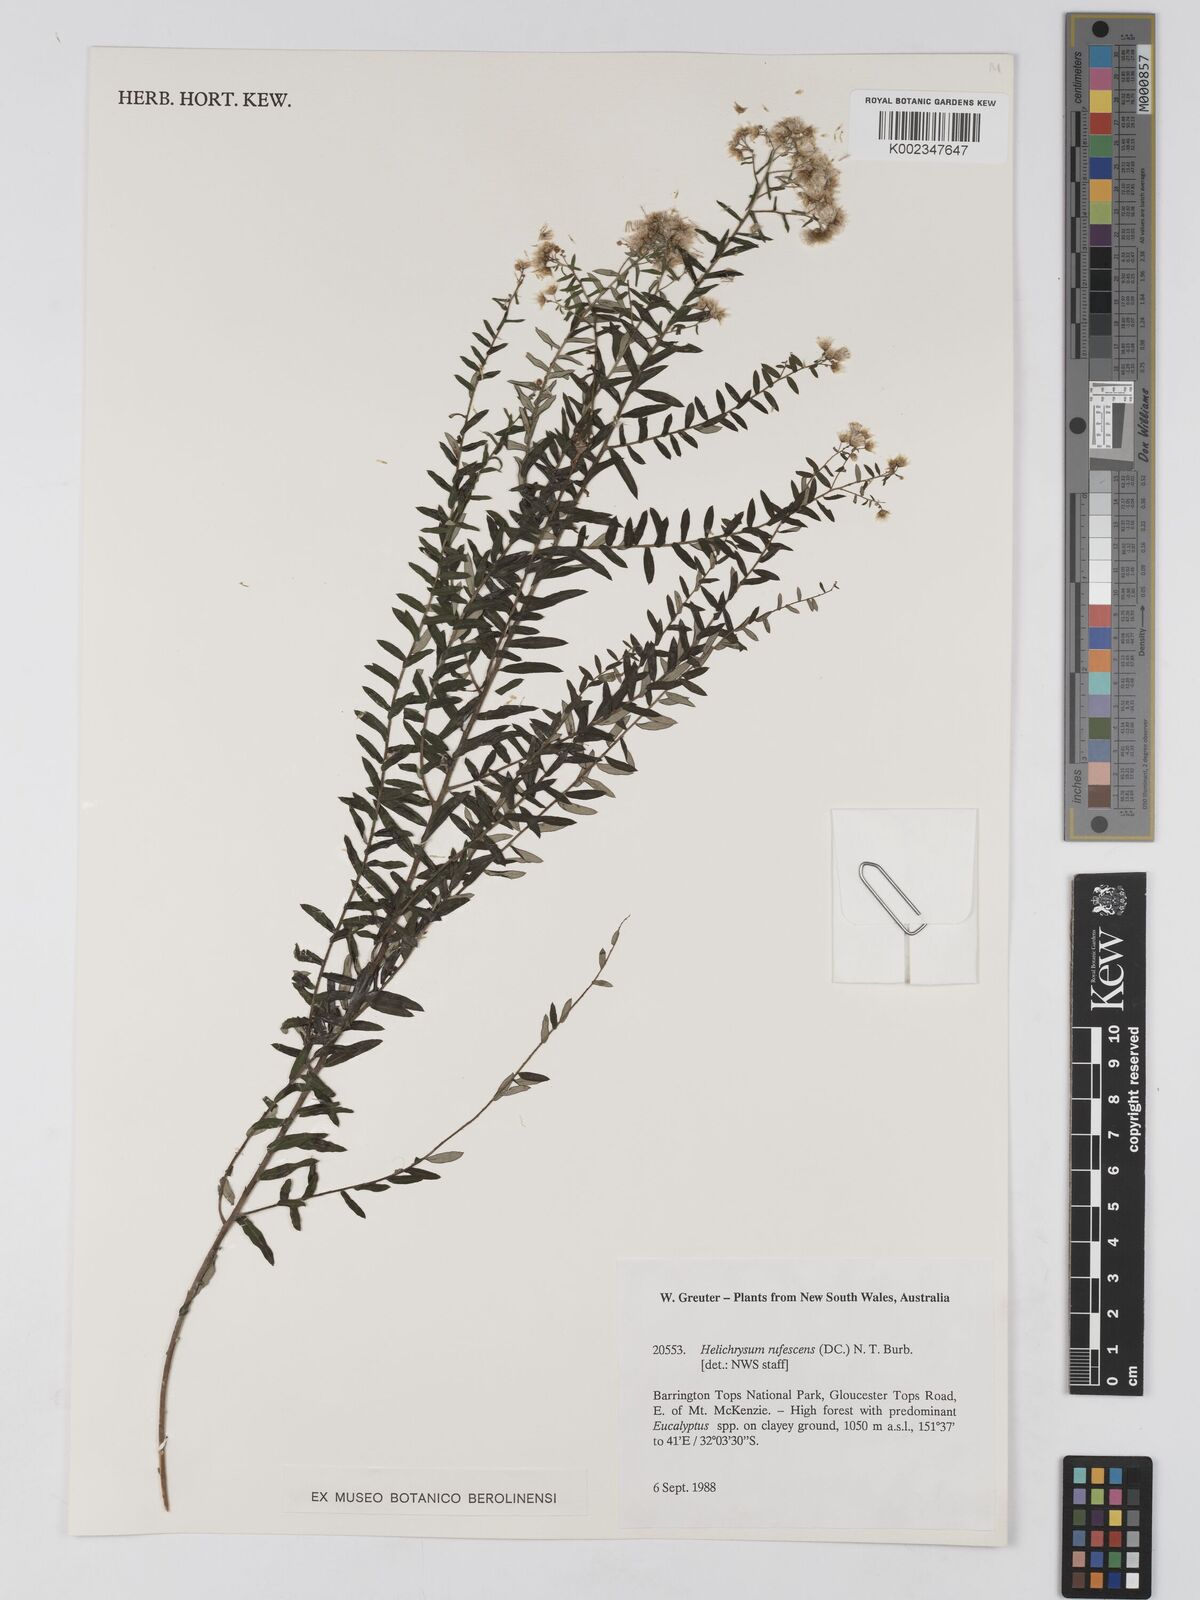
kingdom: Plantae
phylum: Tracheophyta
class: Magnoliopsida
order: Asterales
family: Asteraceae
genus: Ozothamnus
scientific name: Ozothamnus rufescens
